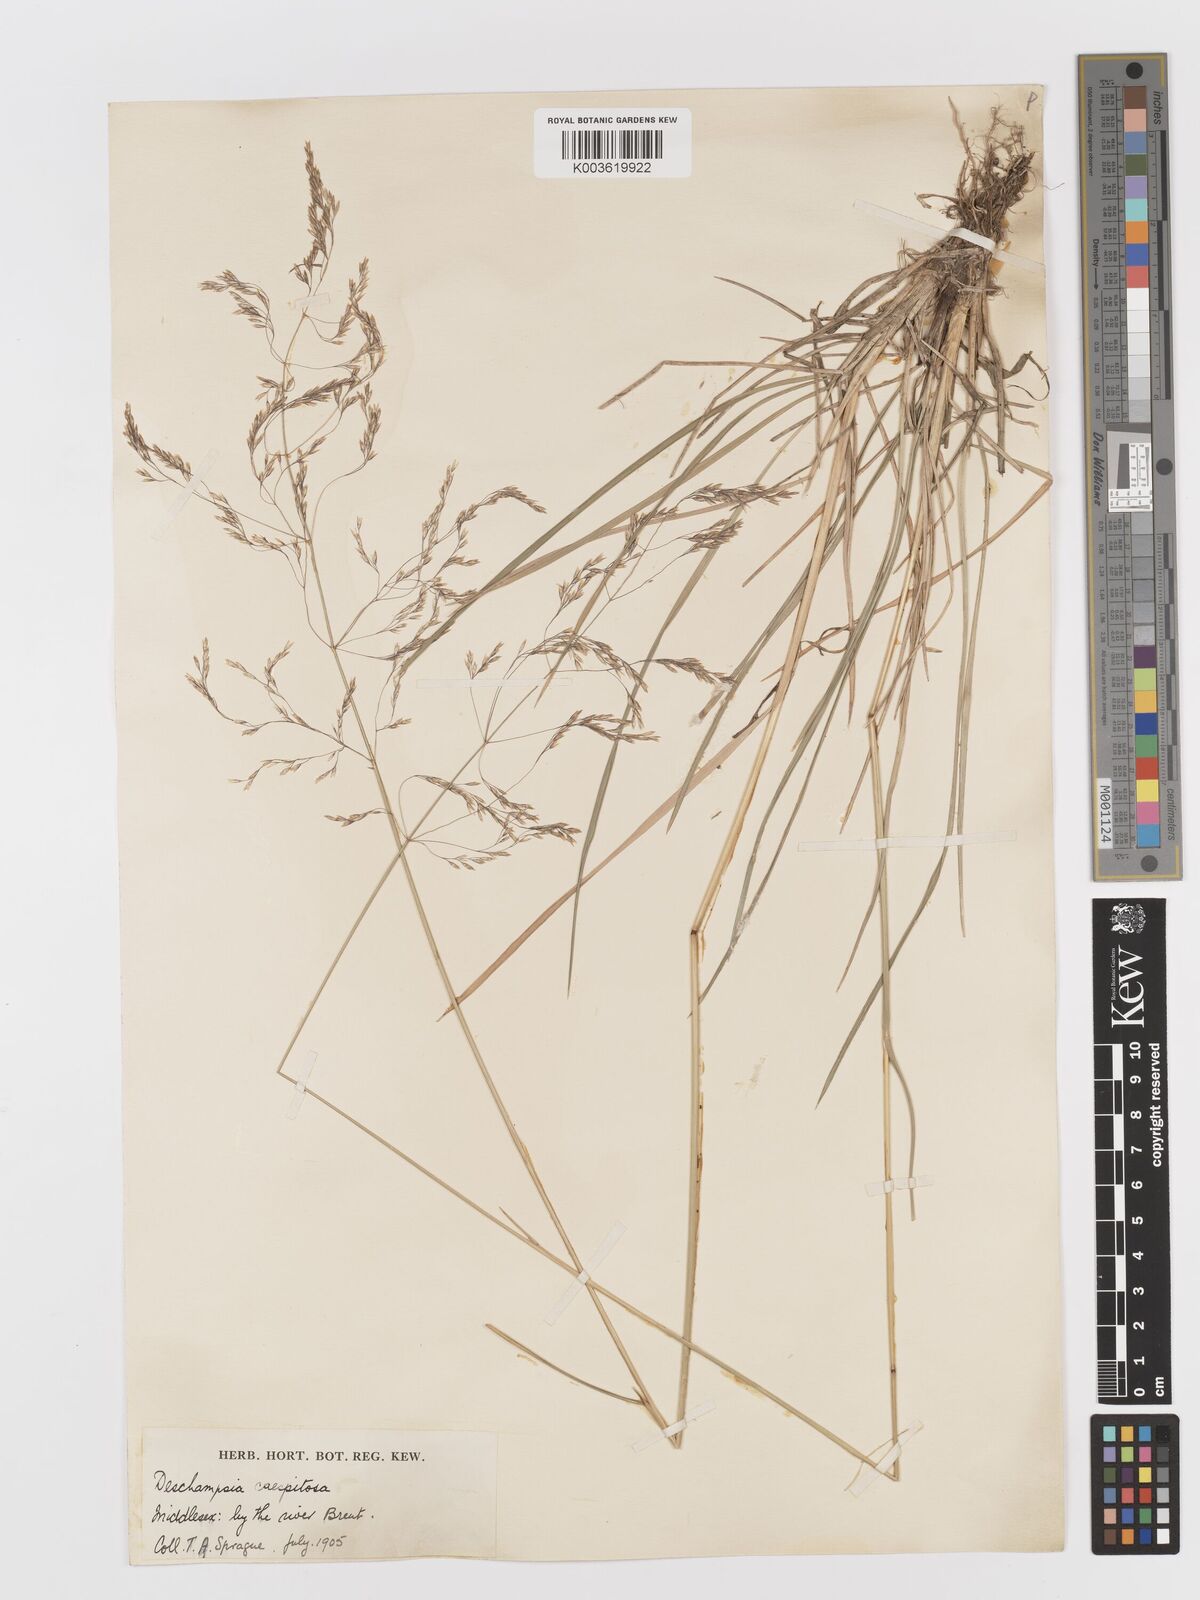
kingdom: Plantae
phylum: Tracheophyta
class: Liliopsida
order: Poales
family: Poaceae
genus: Deschampsia
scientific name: Deschampsia
